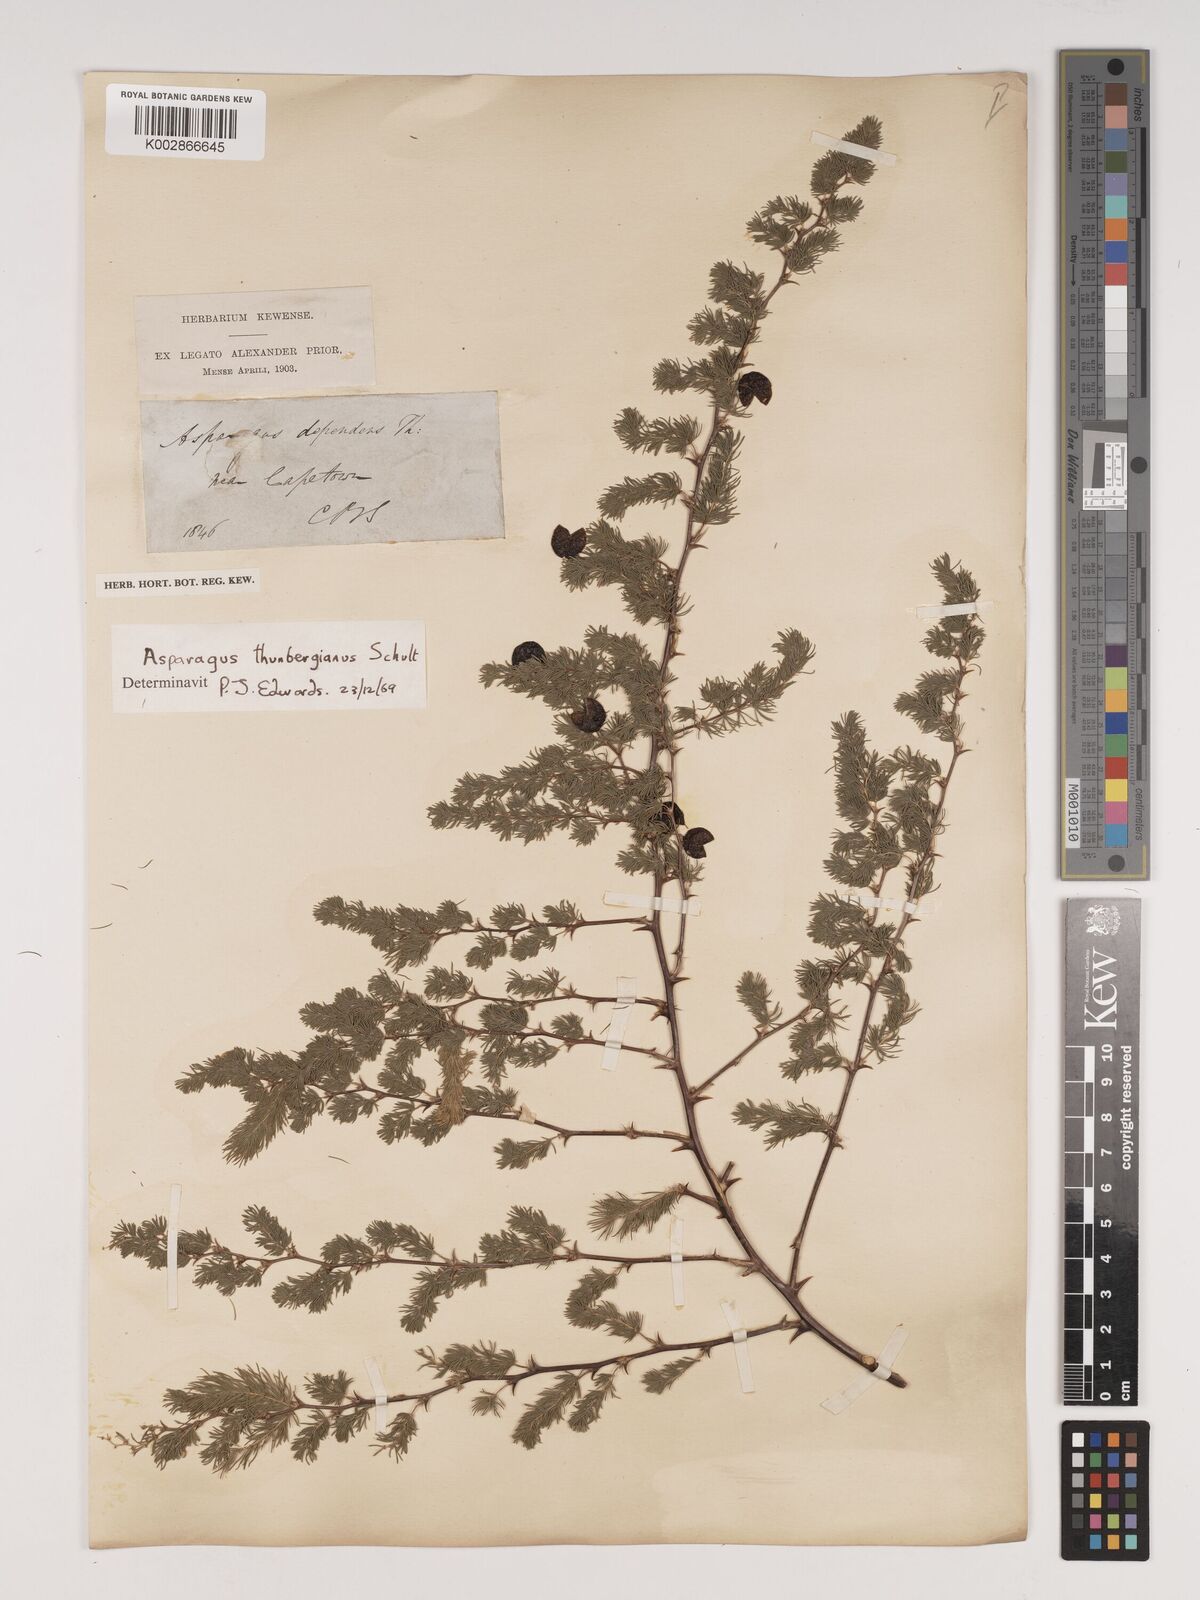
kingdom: Plantae
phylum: Tracheophyta
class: Liliopsida
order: Asparagales
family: Asparagaceae
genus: Asparagus
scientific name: Asparagus rubicundus
